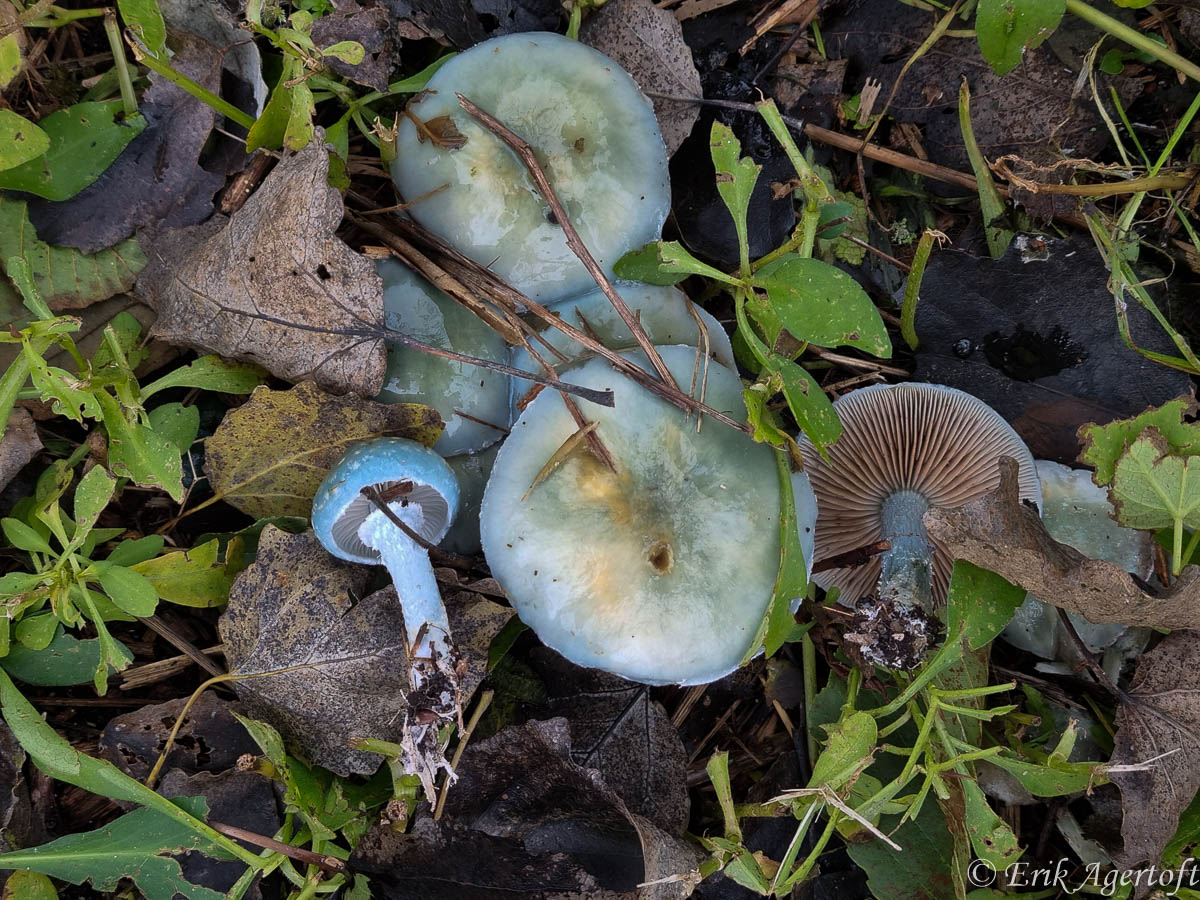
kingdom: Fungi
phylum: Basidiomycota
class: Agaricomycetes
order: Agaricales
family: Strophariaceae
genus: Stropharia
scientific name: Stropharia cyanea
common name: blågrøn bredblad
